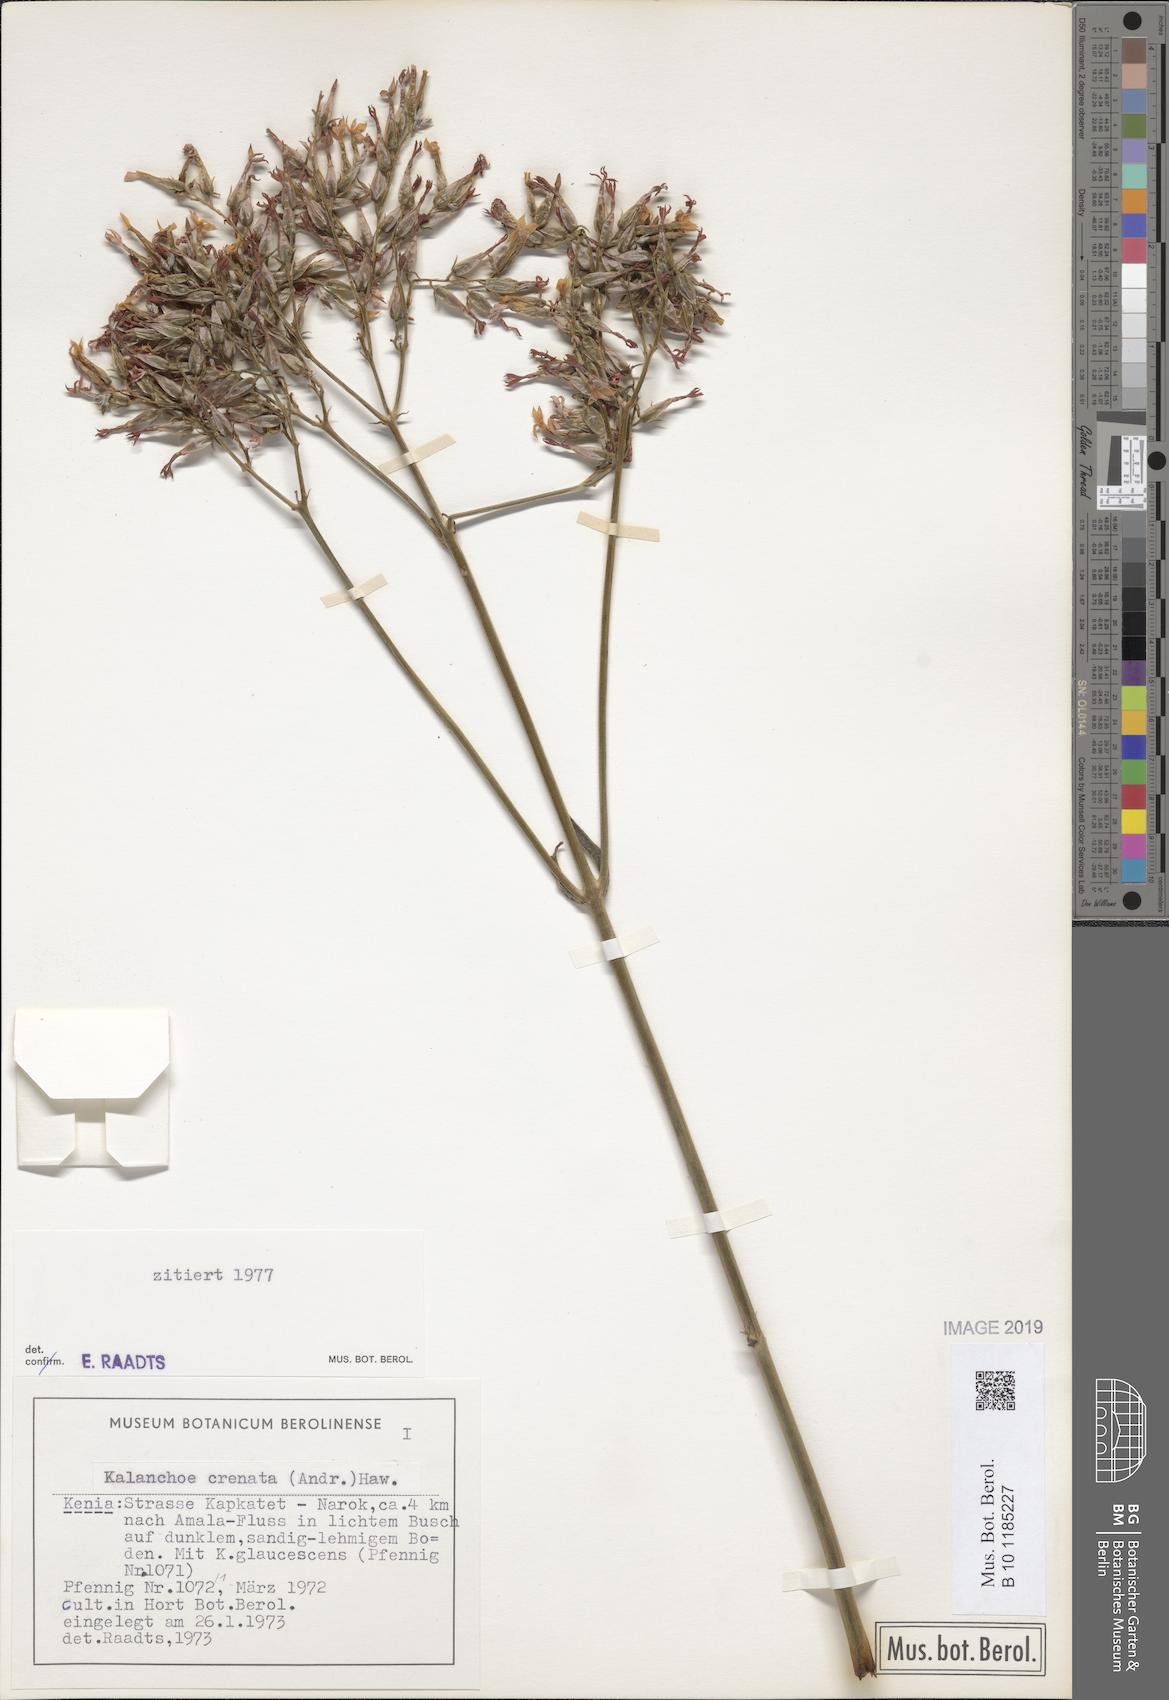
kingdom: Plantae
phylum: Tracheophyta
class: Magnoliopsida
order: Saxifragales
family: Crassulaceae
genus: Kalanchoe
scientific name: Kalanchoe crenata
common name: Neverdie
